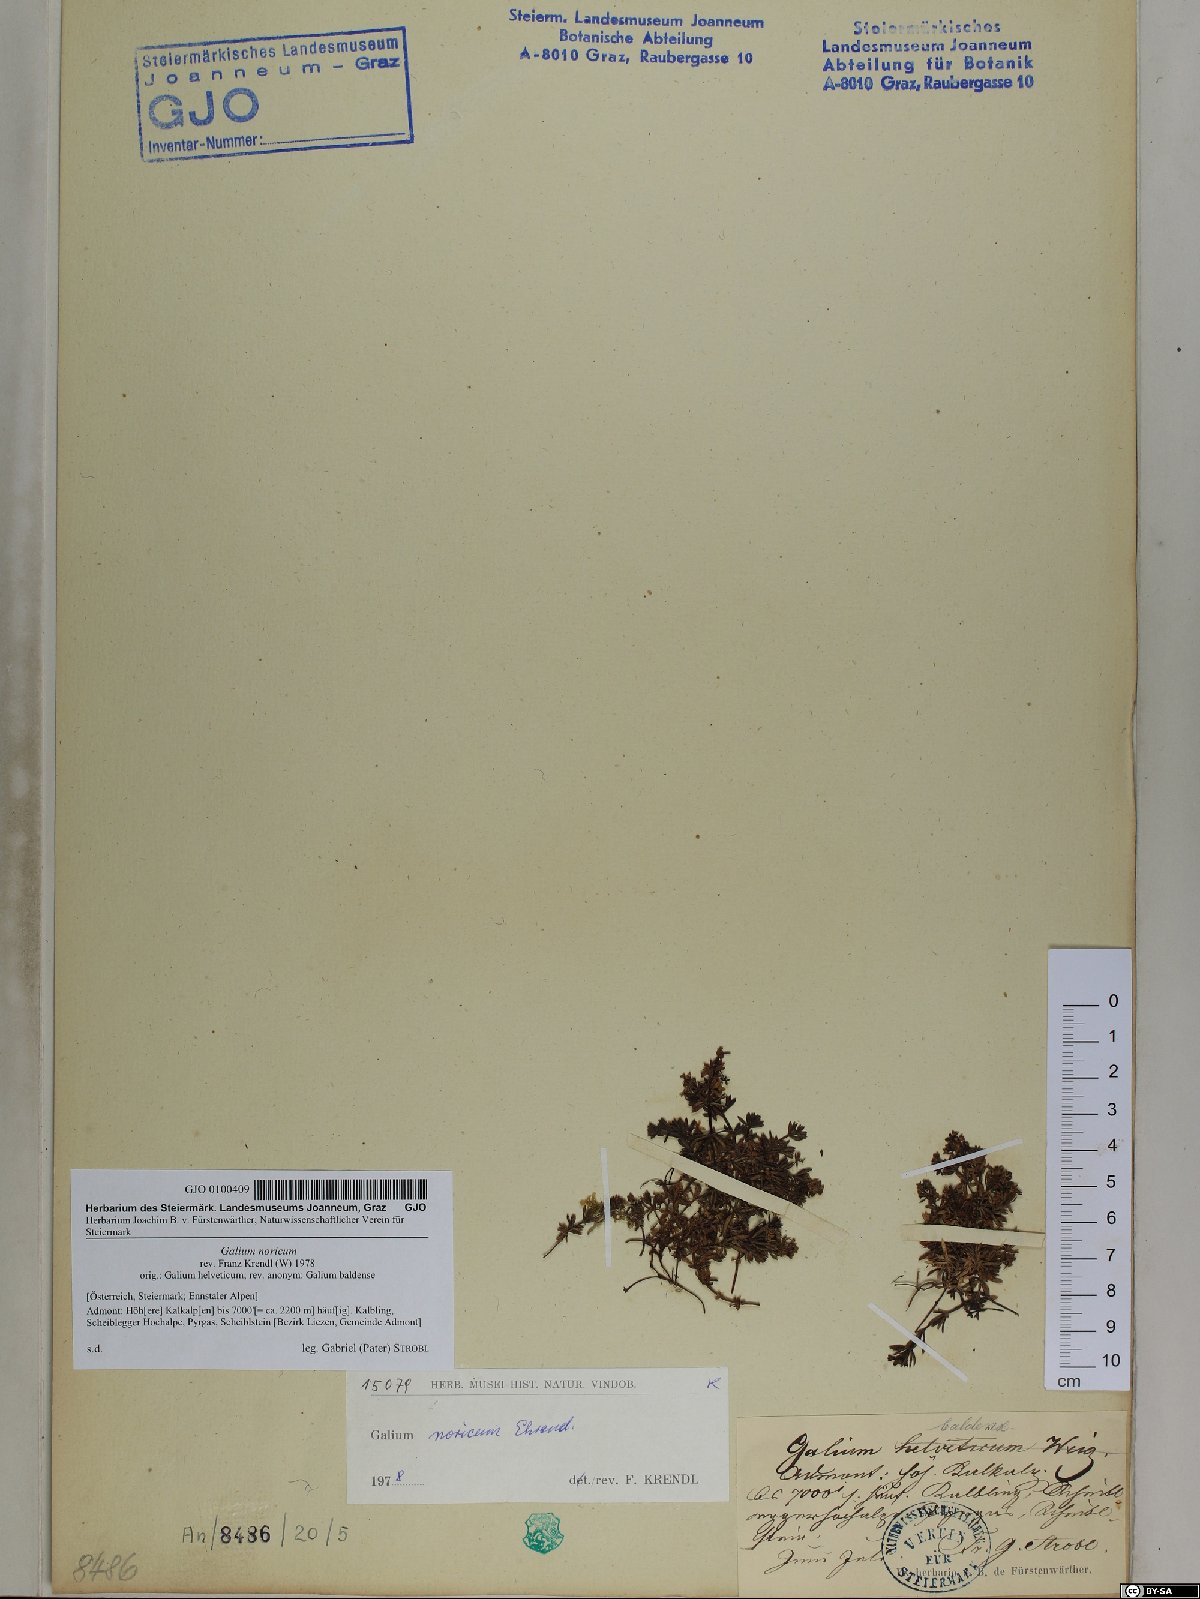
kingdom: Plantae
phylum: Tracheophyta
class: Magnoliopsida
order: Gentianales
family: Rubiaceae
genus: Galium
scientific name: Galium noricum
